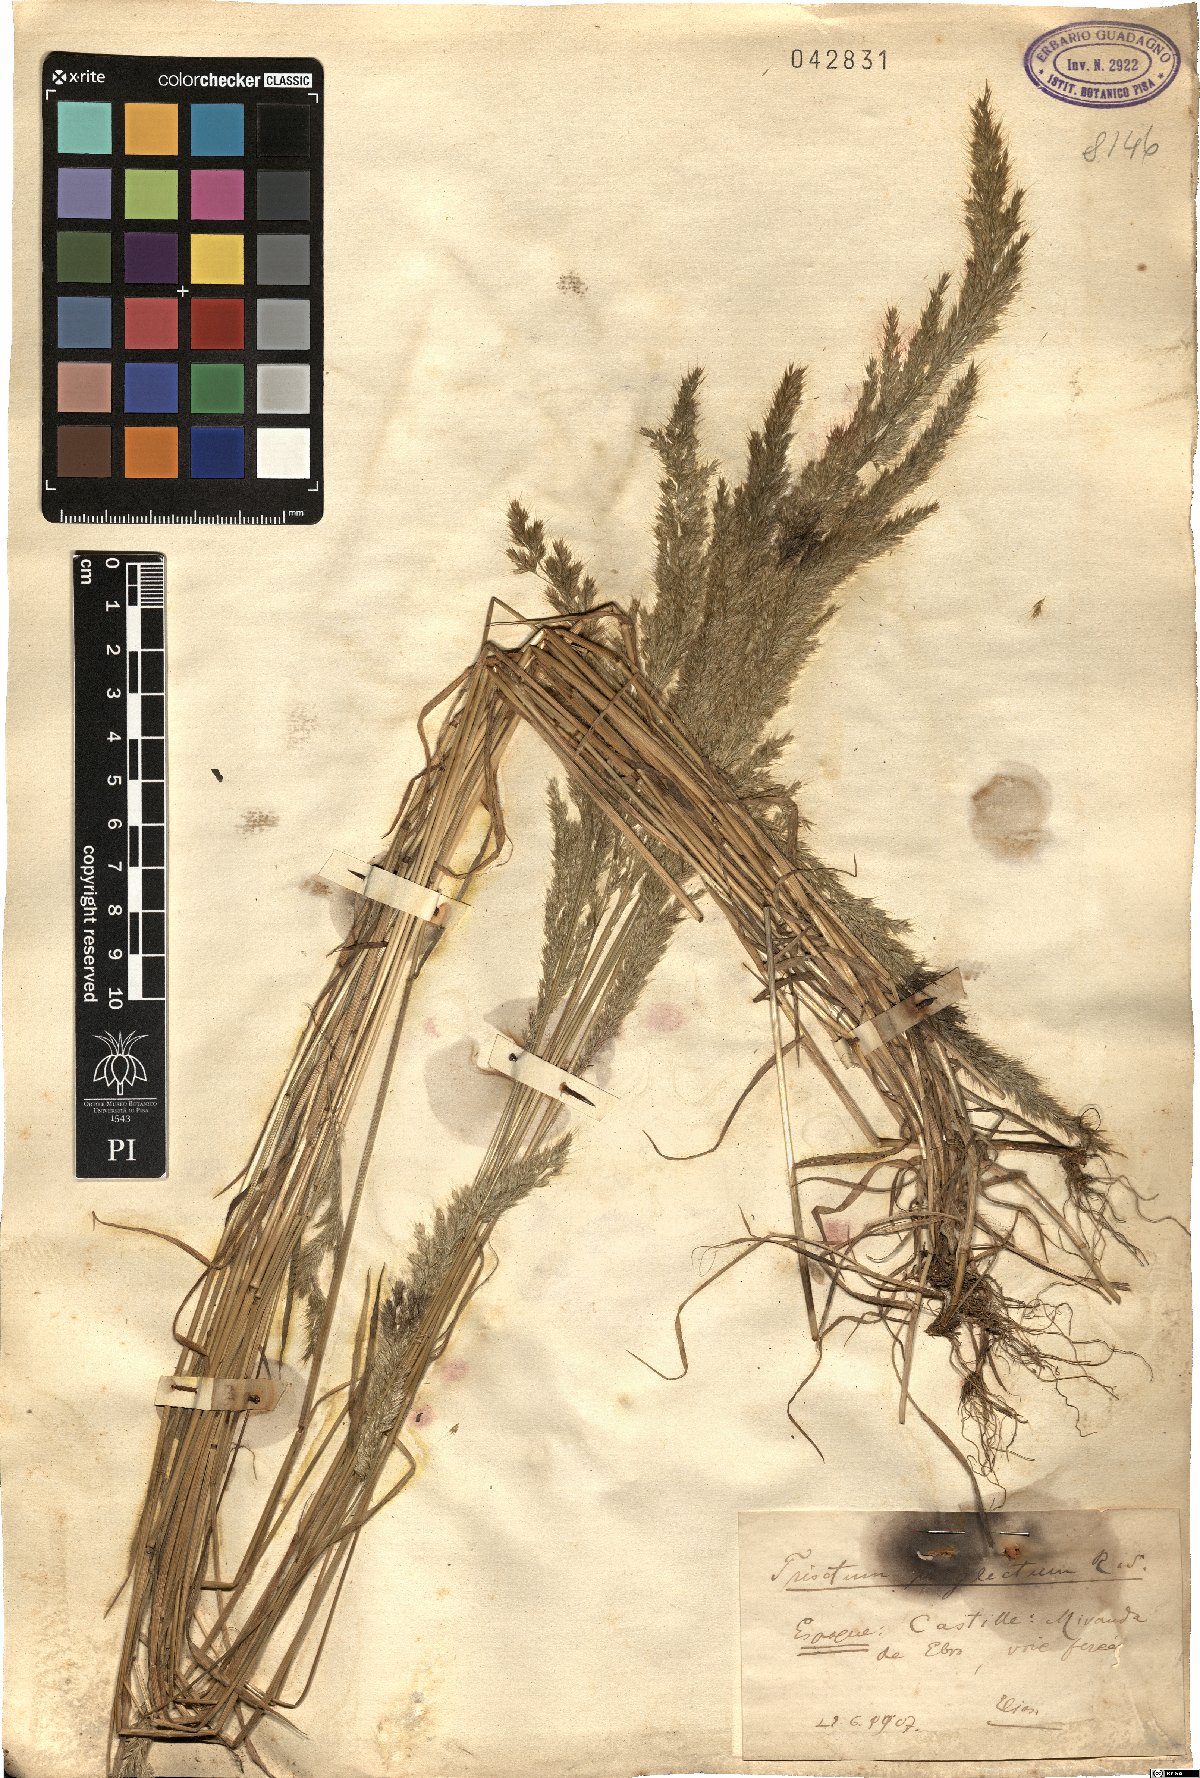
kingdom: Plantae
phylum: Tracheophyta
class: Liliopsida
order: Poales
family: Poaceae
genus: Trisetaria
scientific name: Trisetaria panicea
